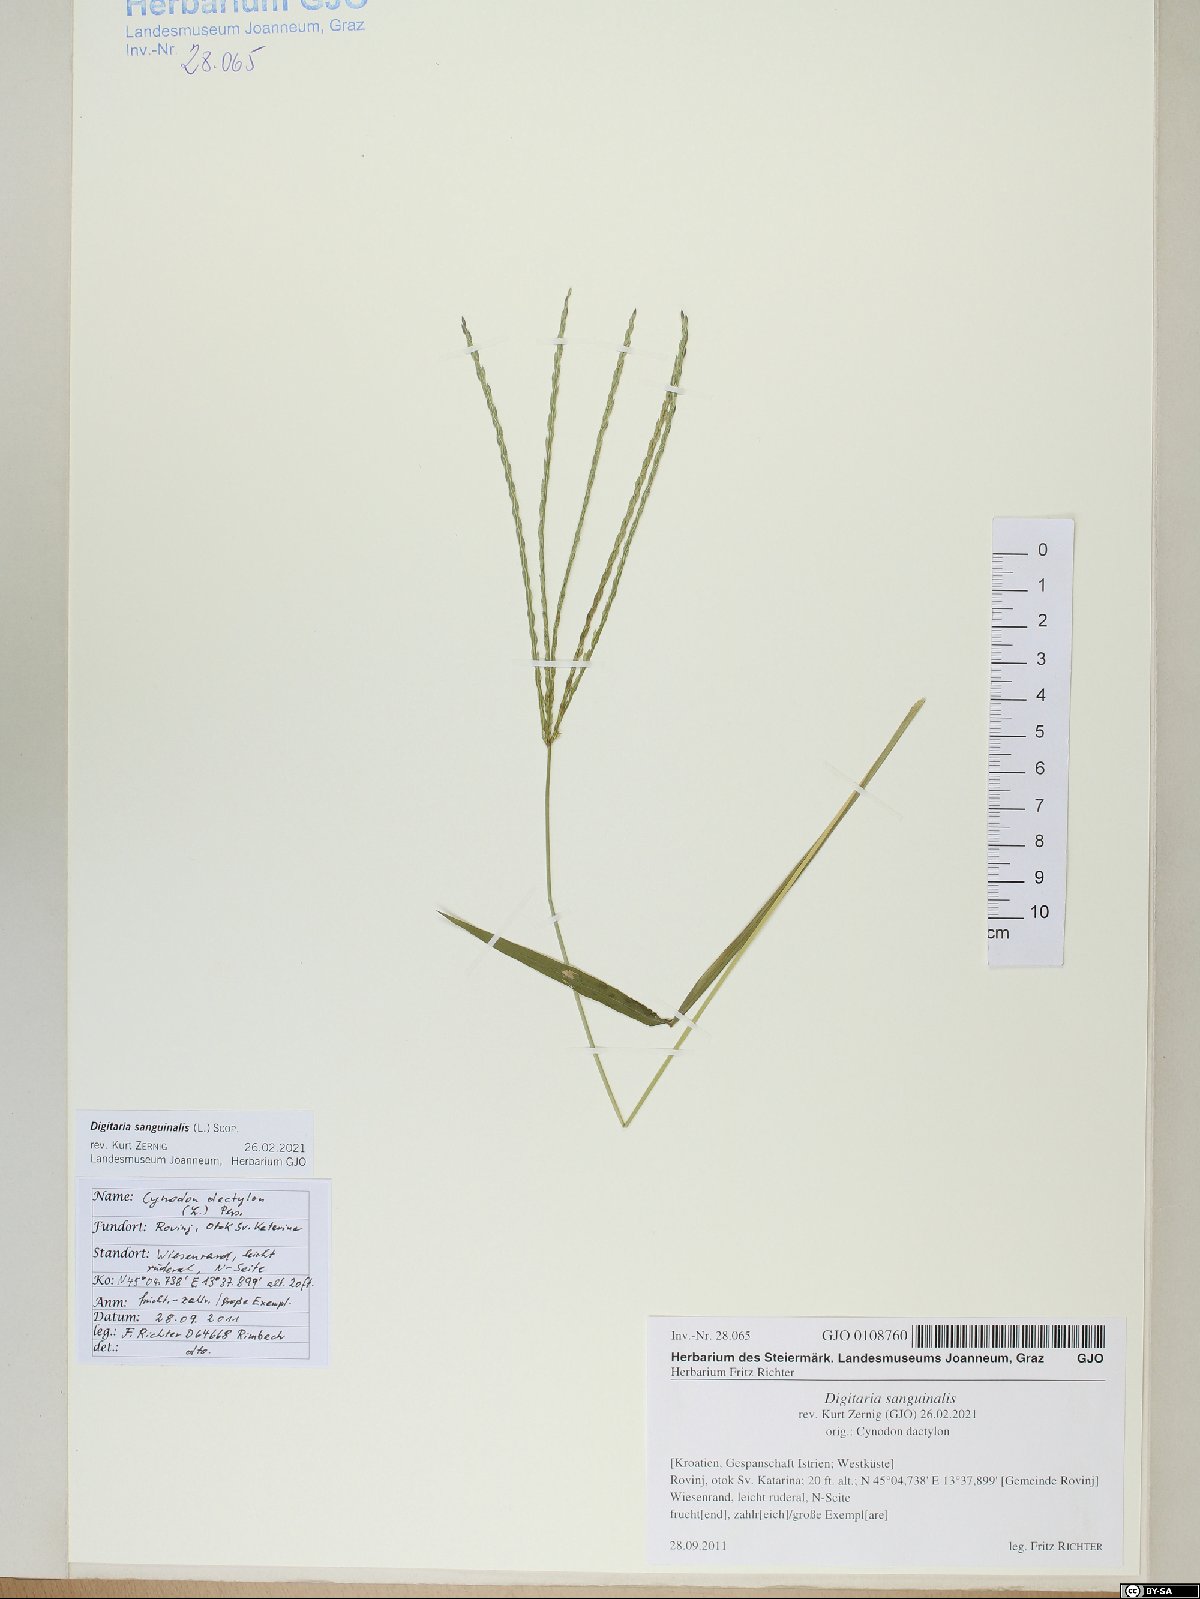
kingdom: Plantae
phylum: Tracheophyta
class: Liliopsida
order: Poales
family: Poaceae
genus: Digitaria
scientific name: Digitaria sanguinalis
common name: Hairy crabgrass
